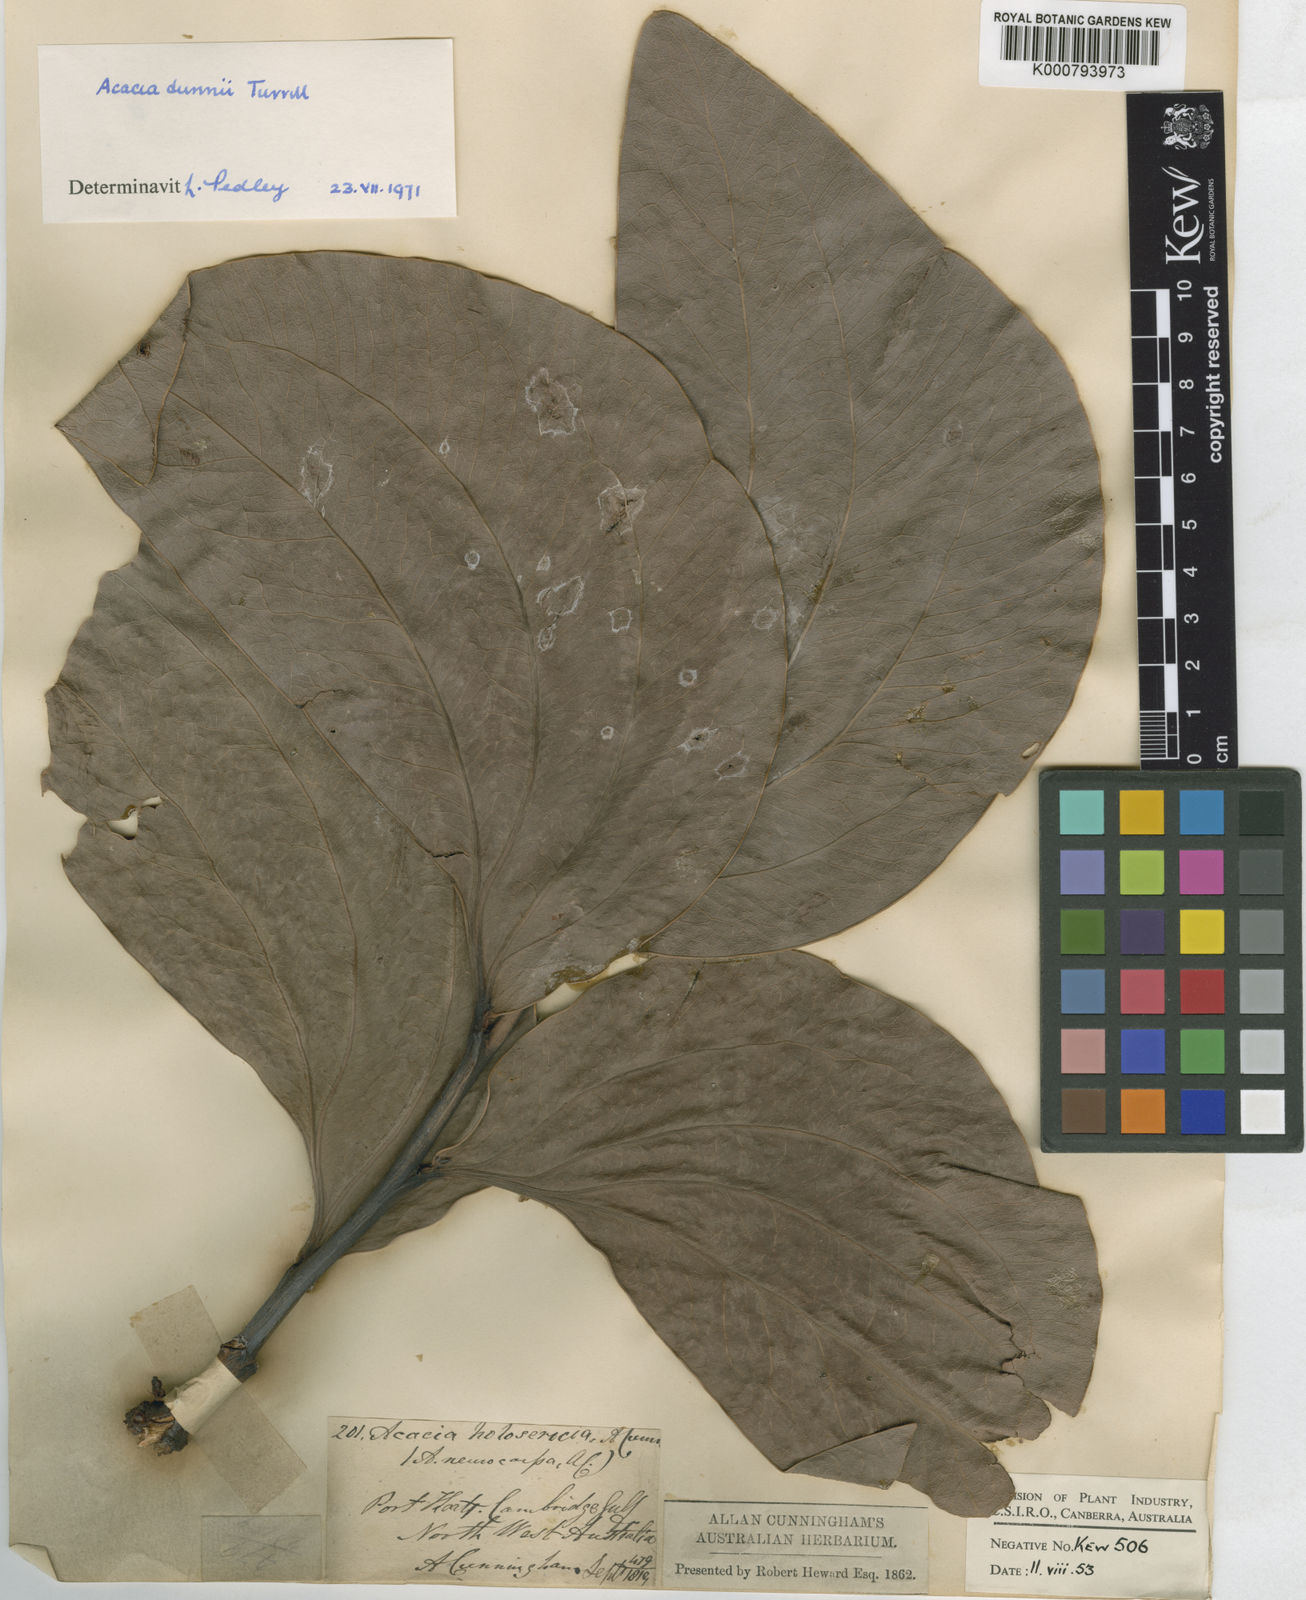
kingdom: Plantae
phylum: Tracheophyta
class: Magnoliopsida
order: Fabales
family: Fabaceae
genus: Acacia
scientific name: Acacia holosericea
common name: Candelabra wattle
